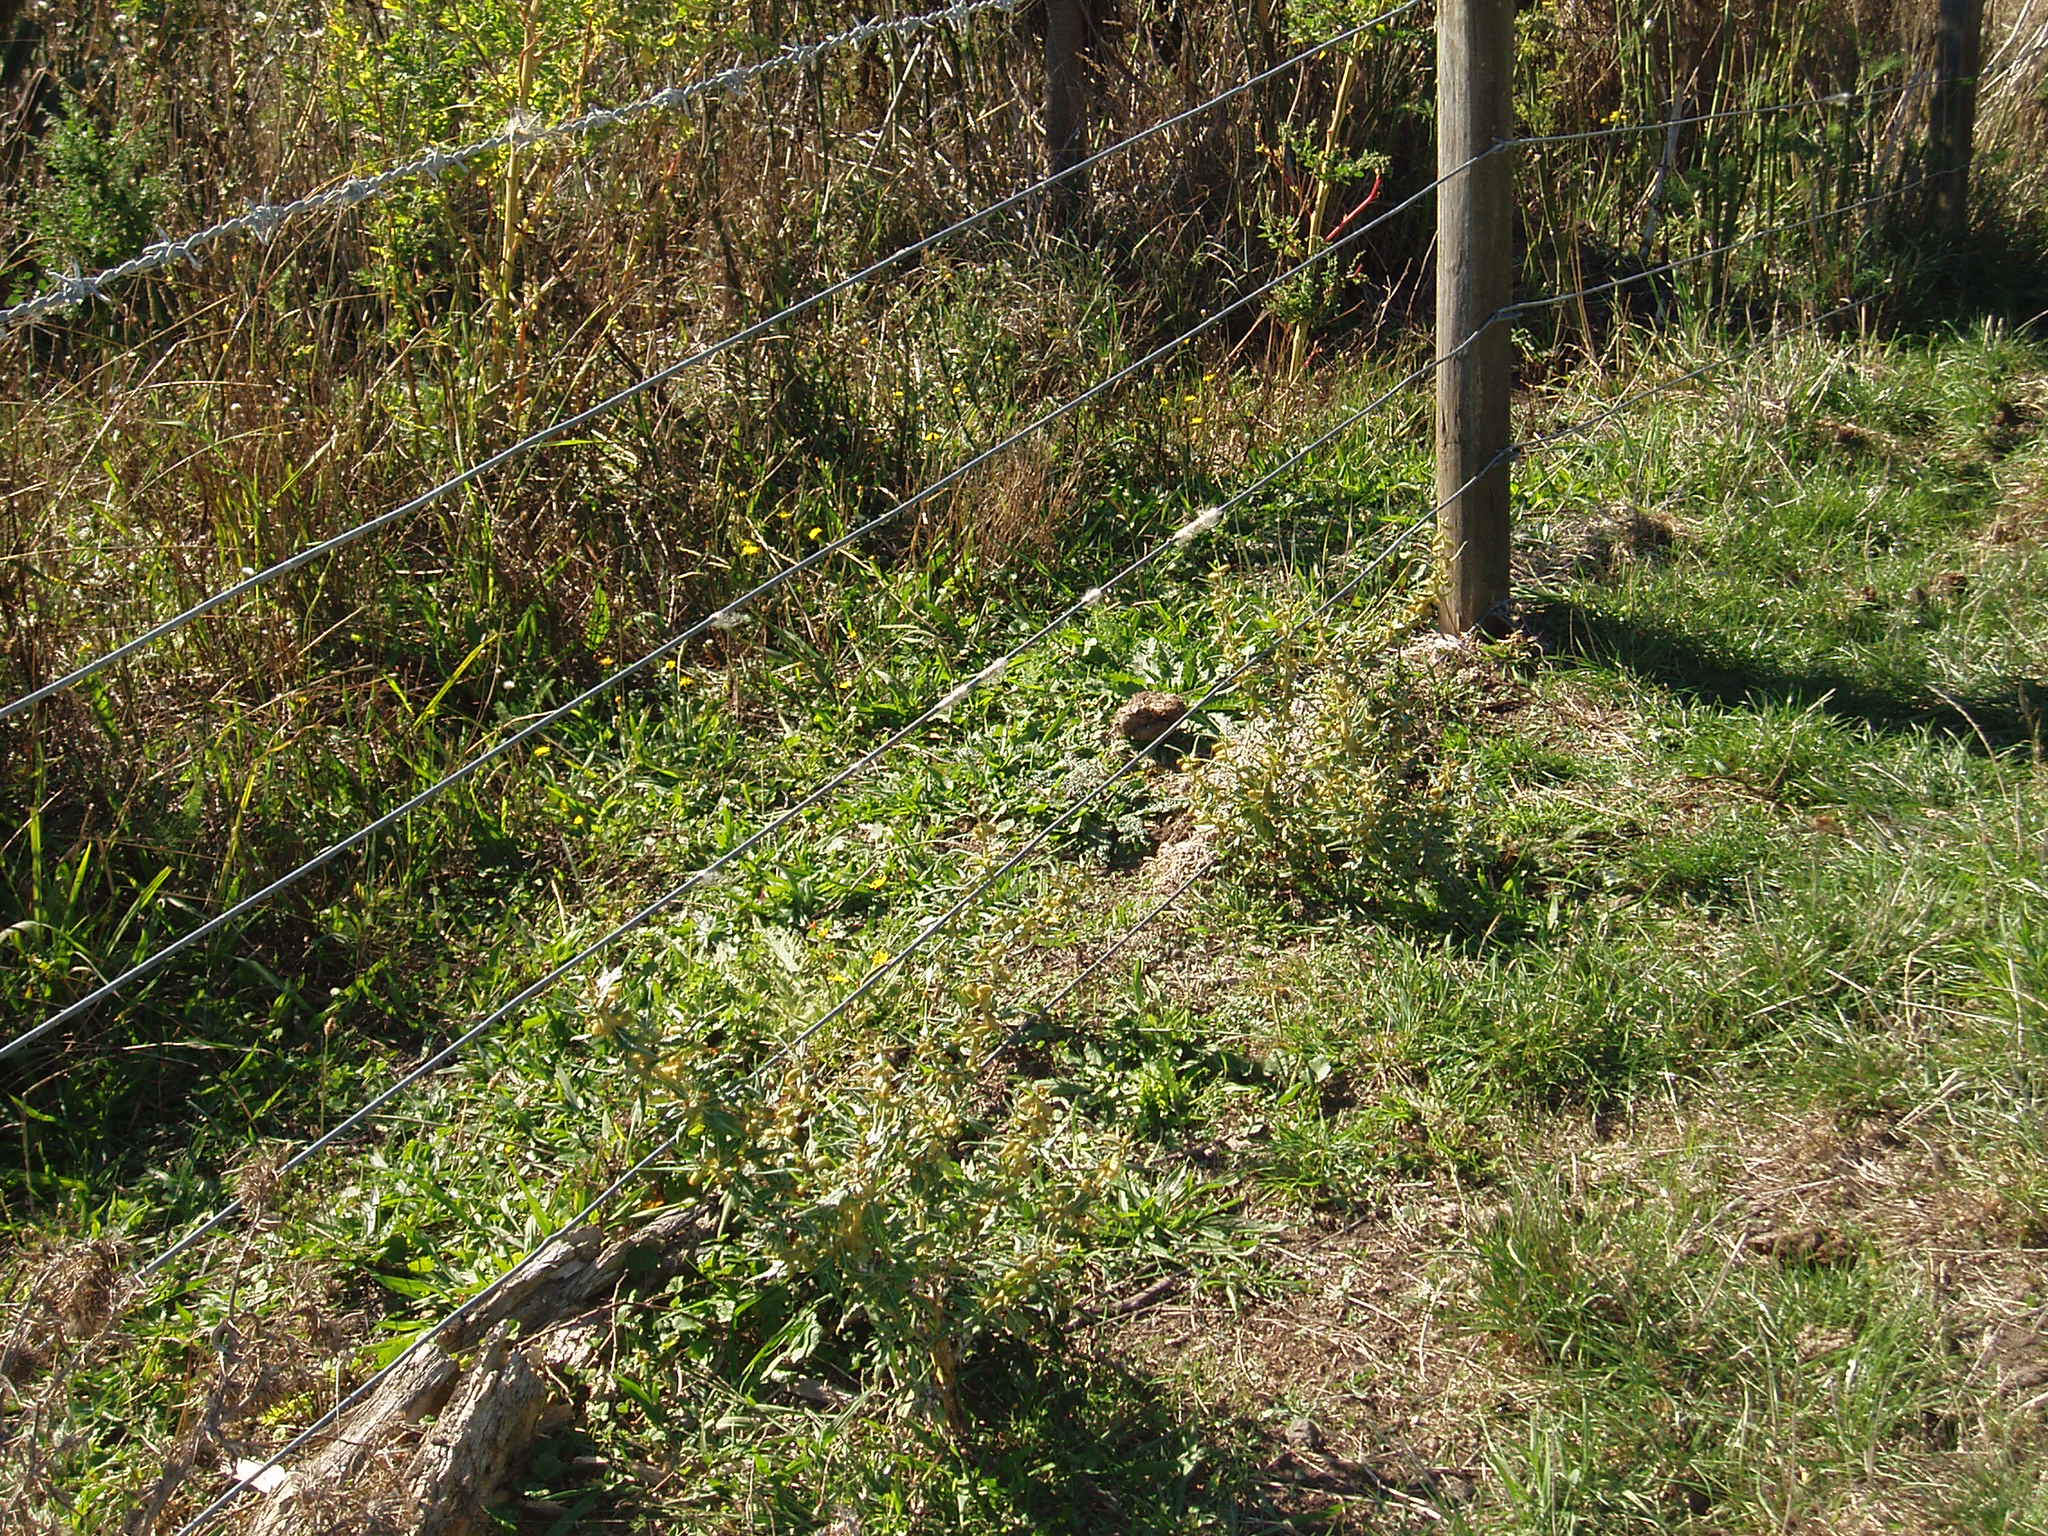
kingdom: Plantae
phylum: Tracheophyta
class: Magnoliopsida
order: Asterales
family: Asteraceae
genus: Xanthium
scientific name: Xanthium spinosum
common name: Spiny cocklebur
